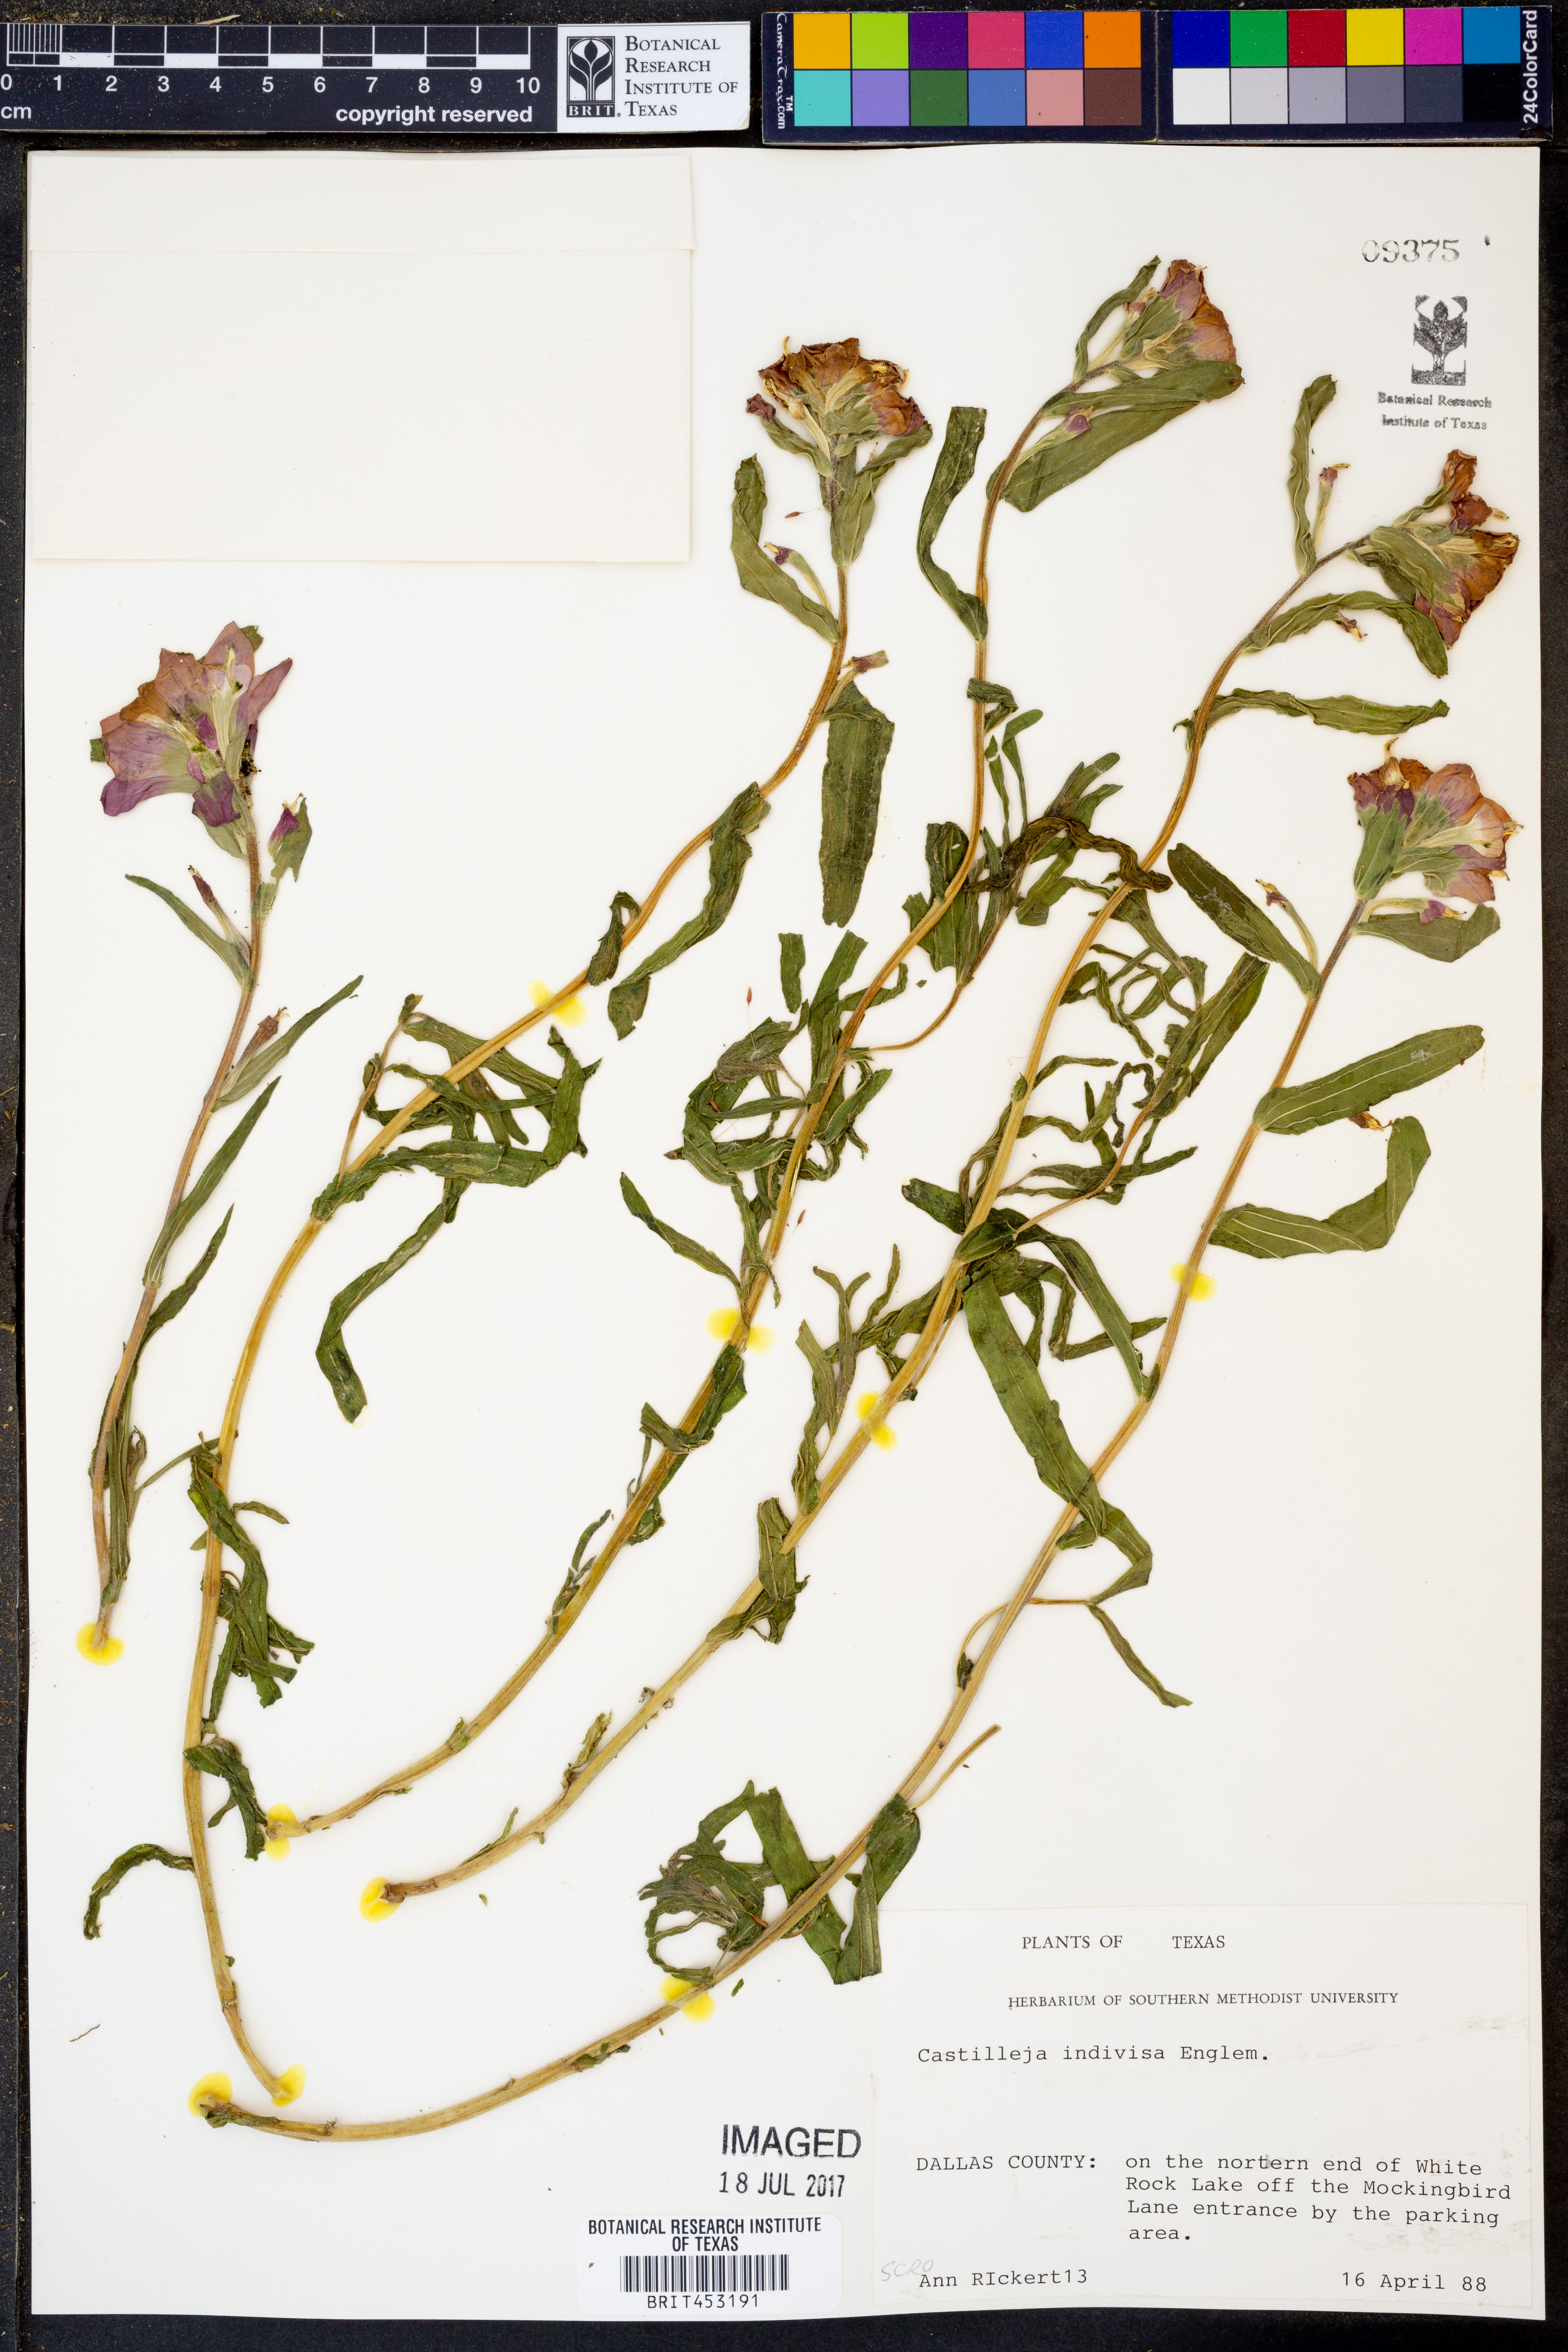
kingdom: Plantae
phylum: Tracheophyta
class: Magnoliopsida
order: Lamiales
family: Orobanchaceae
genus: Castilleja
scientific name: Castilleja indivisa
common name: Texas paintbrush
